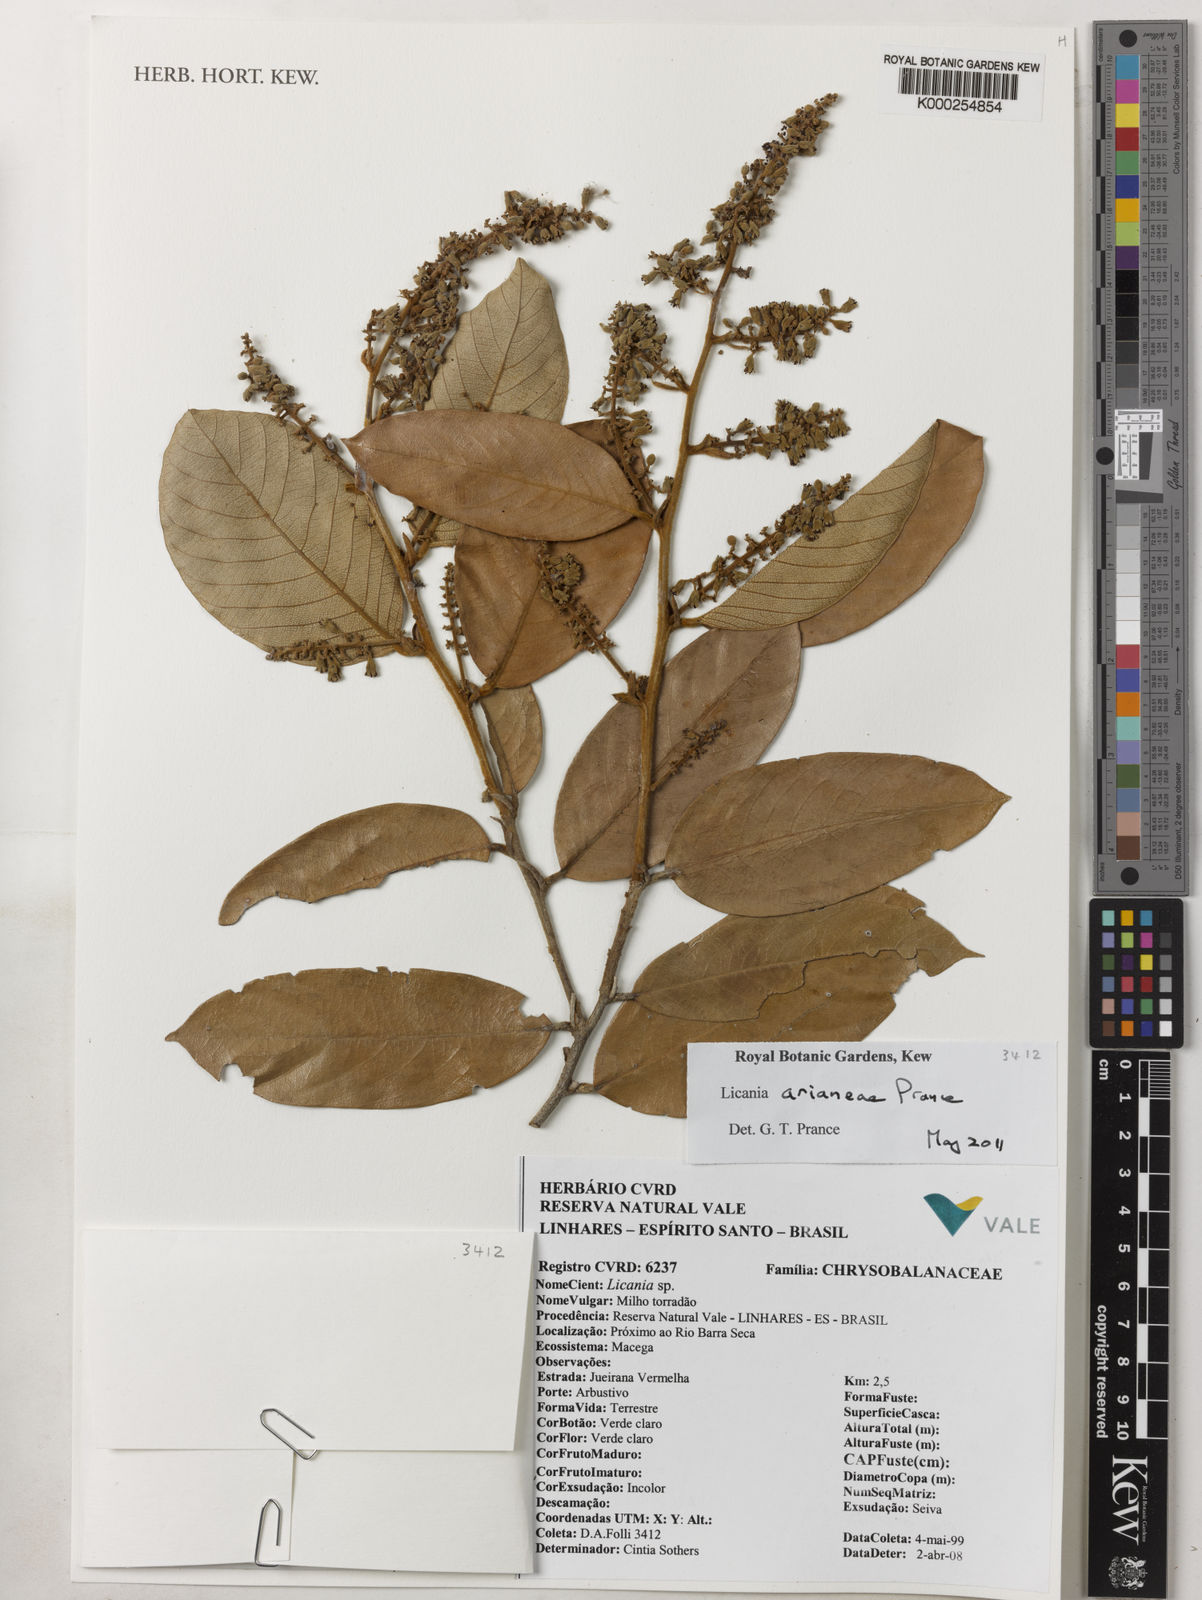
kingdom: Plantae
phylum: Tracheophyta
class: Magnoliopsida
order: Malpighiales
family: Chrysobalanaceae
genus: Licania
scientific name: Licania arianeae
